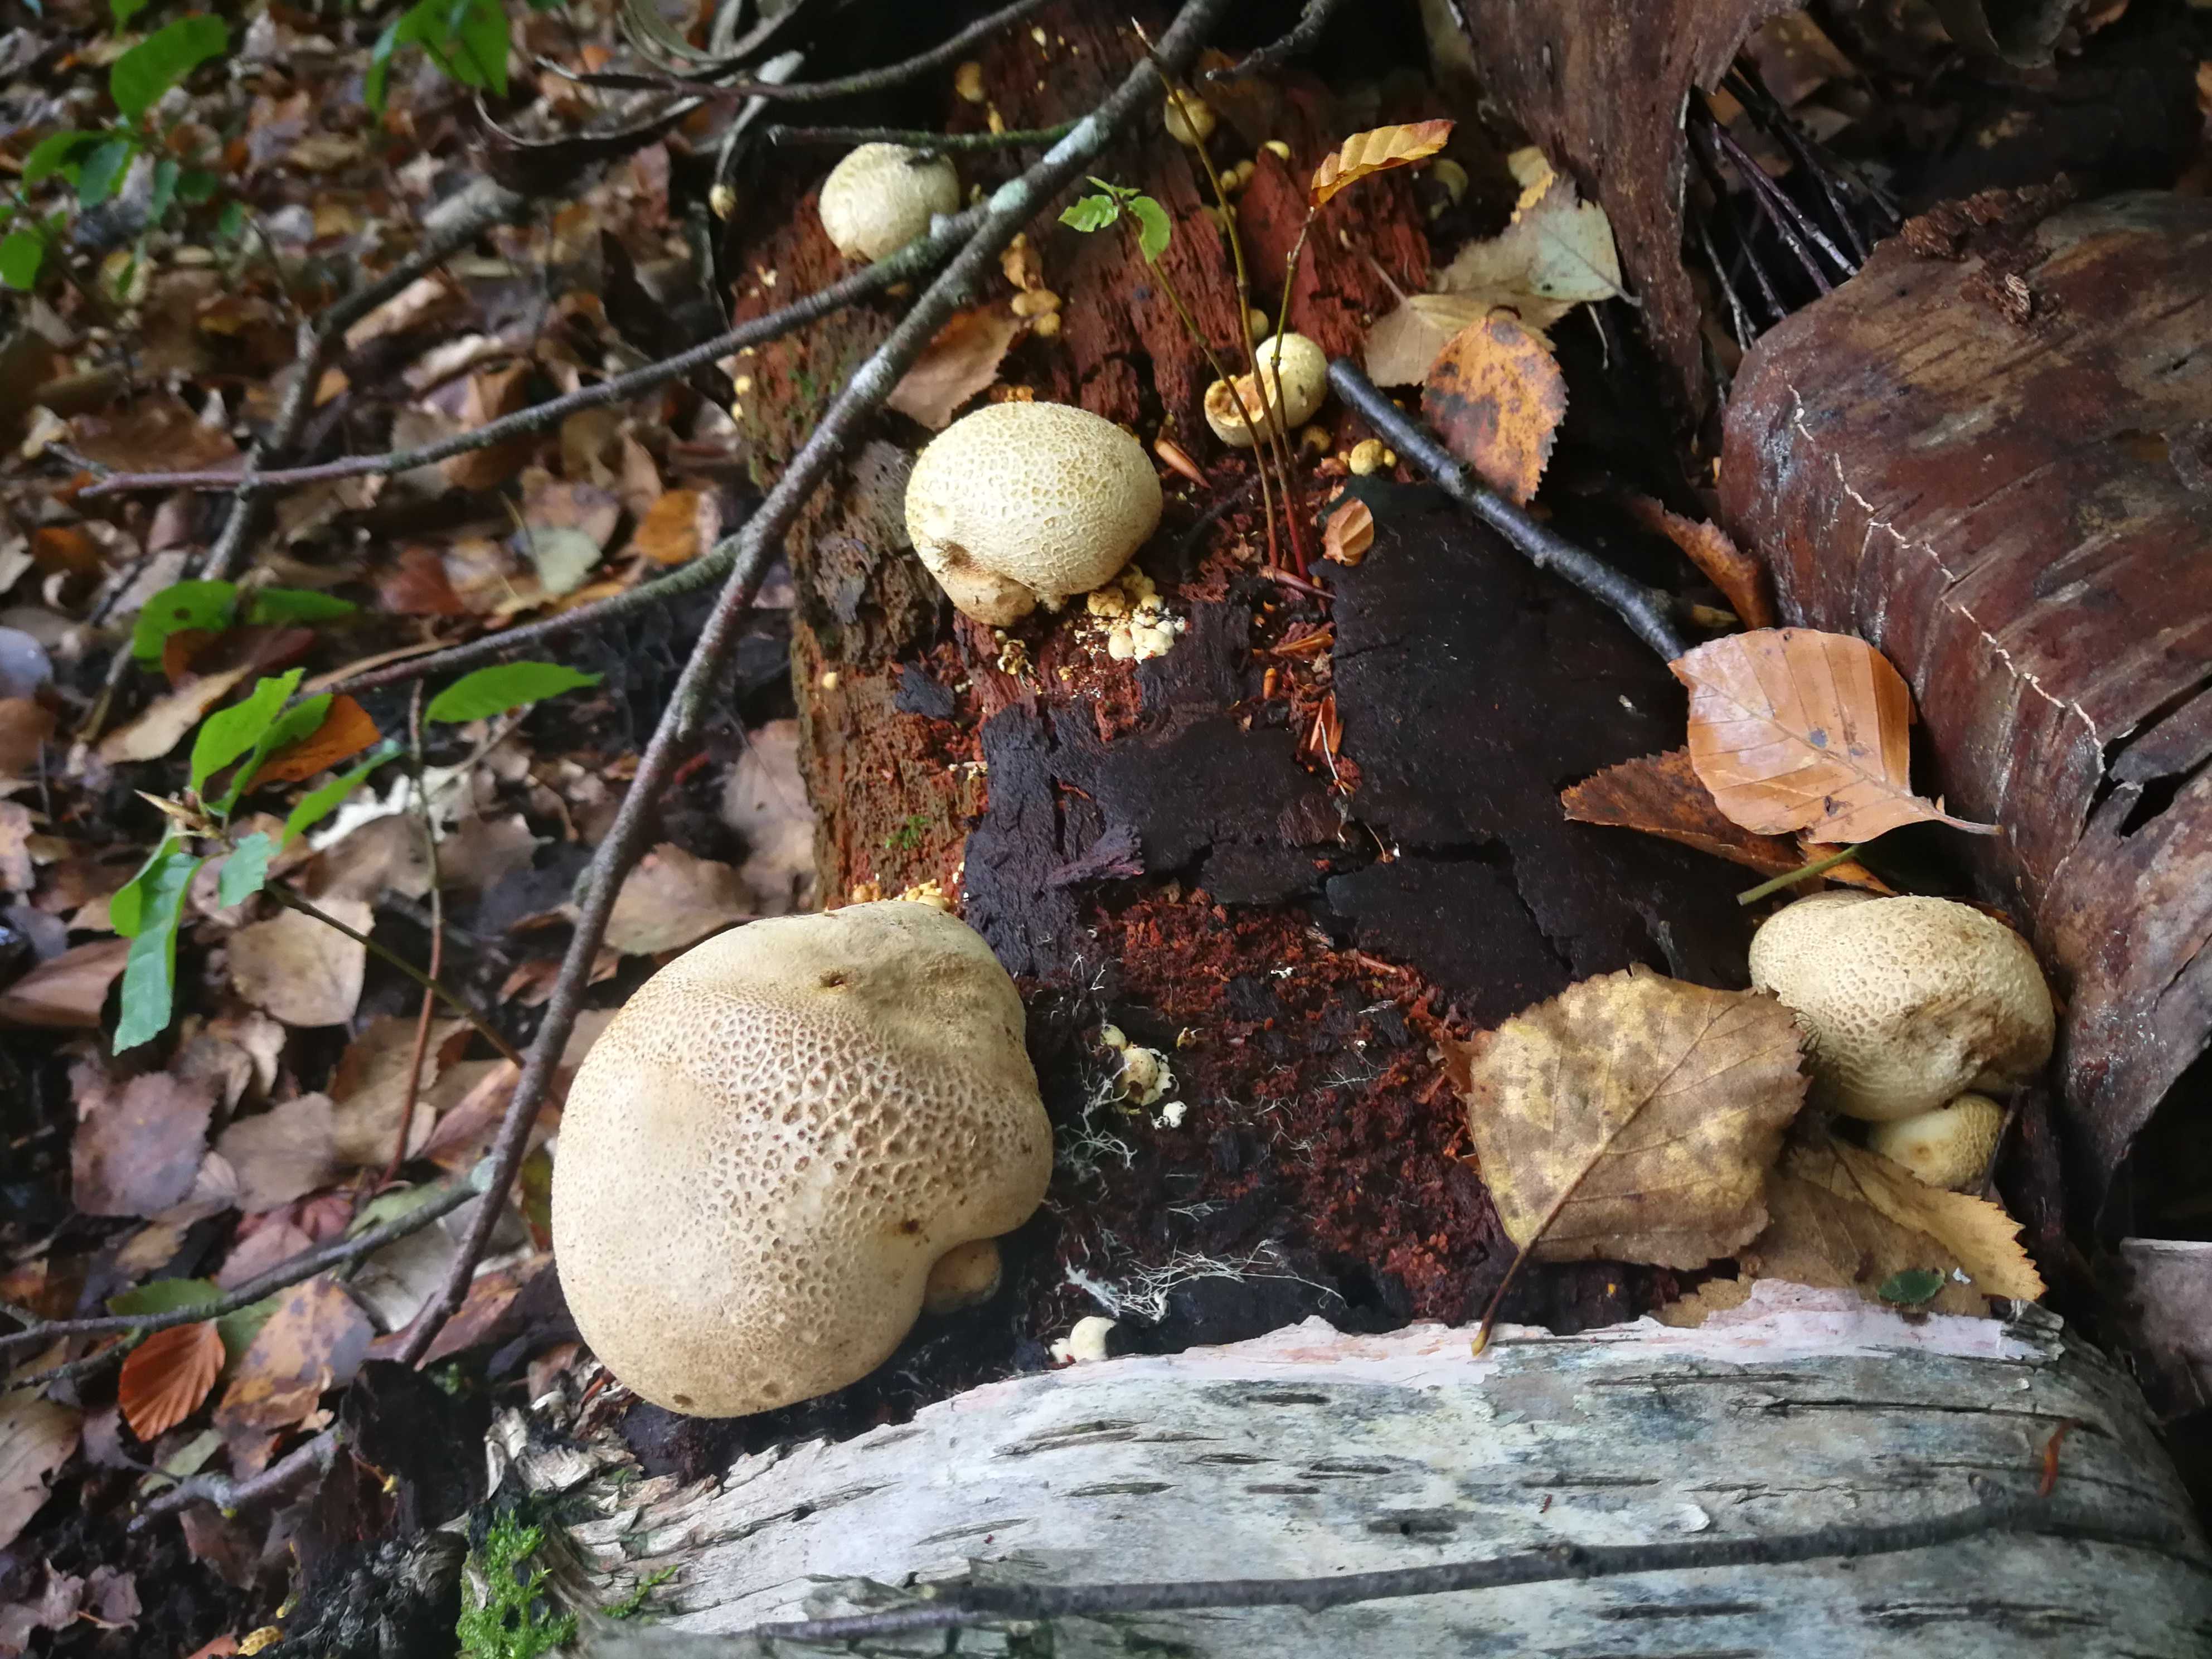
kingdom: Fungi
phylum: Basidiomycota
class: Agaricomycetes
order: Boletales
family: Sclerodermataceae
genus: Scleroderma
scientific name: Scleroderma citrinum
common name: almindelig bruskbold
